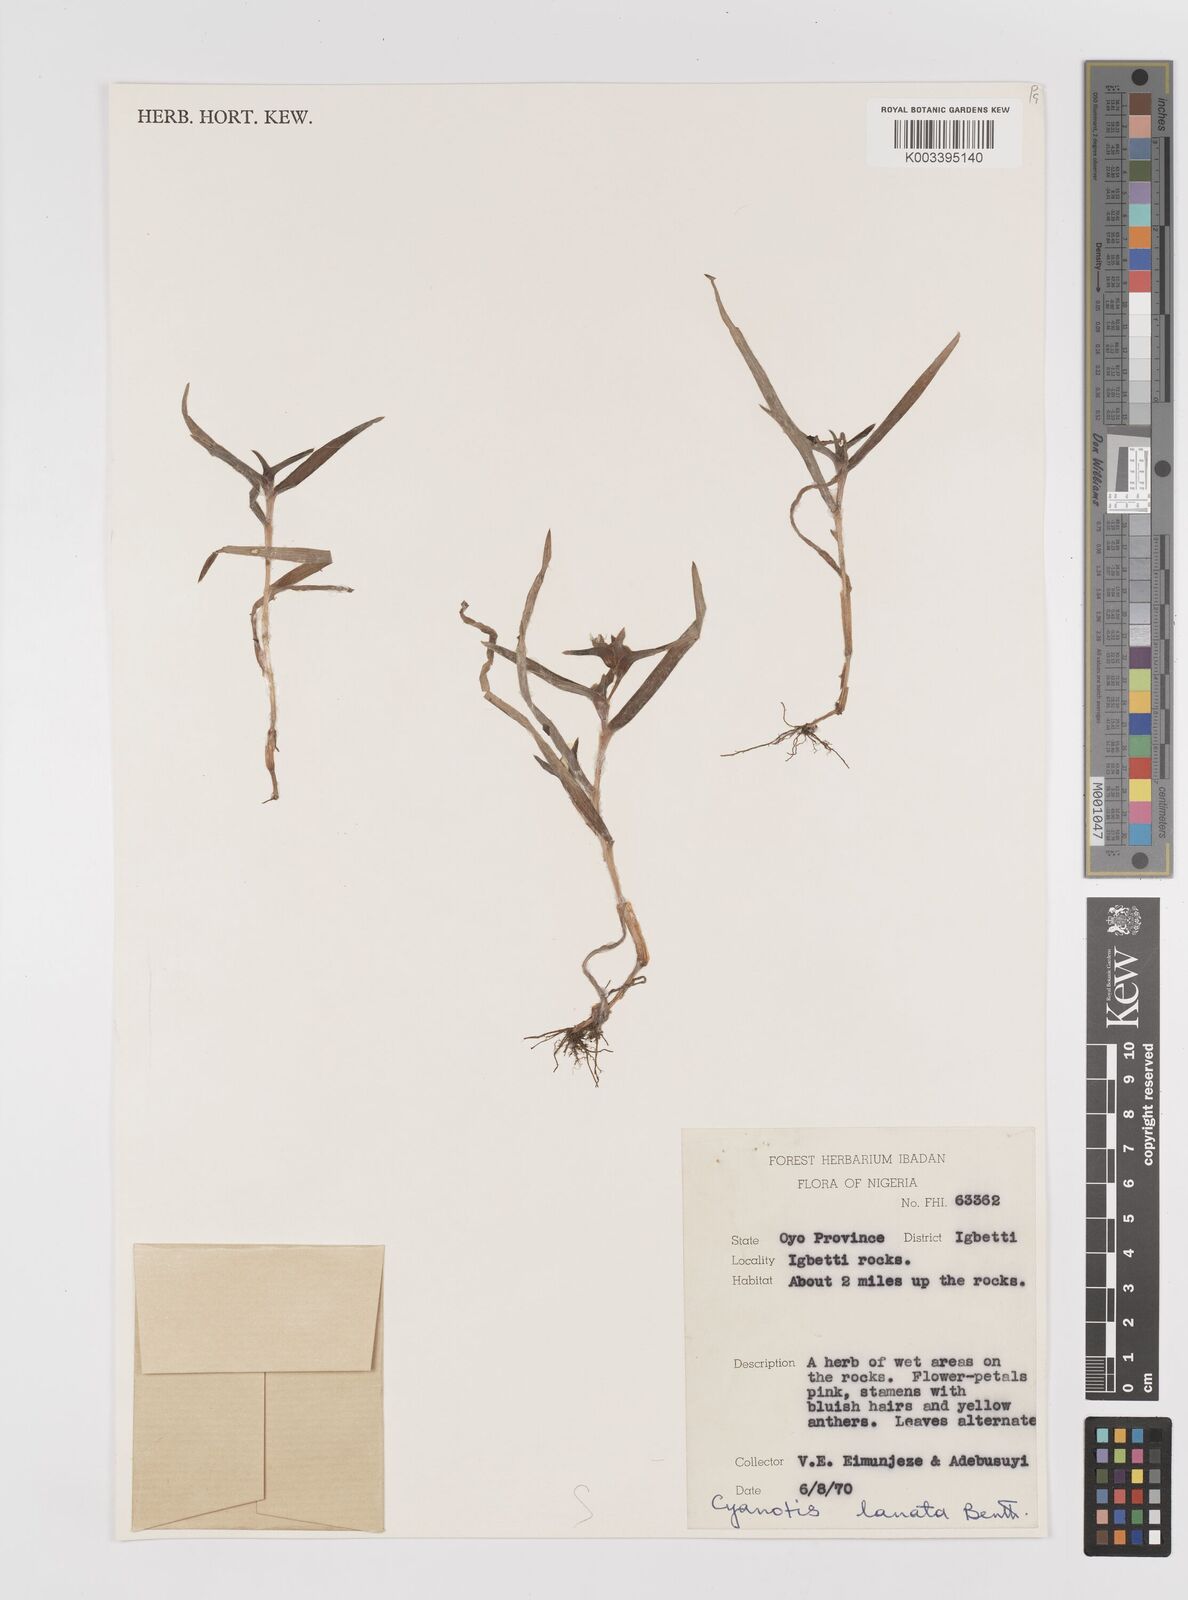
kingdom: Plantae
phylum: Tracheophyta
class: Liliopsida
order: Commelinales
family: Commelinaceae
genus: Cyanotis
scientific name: Cyanotis lanata
